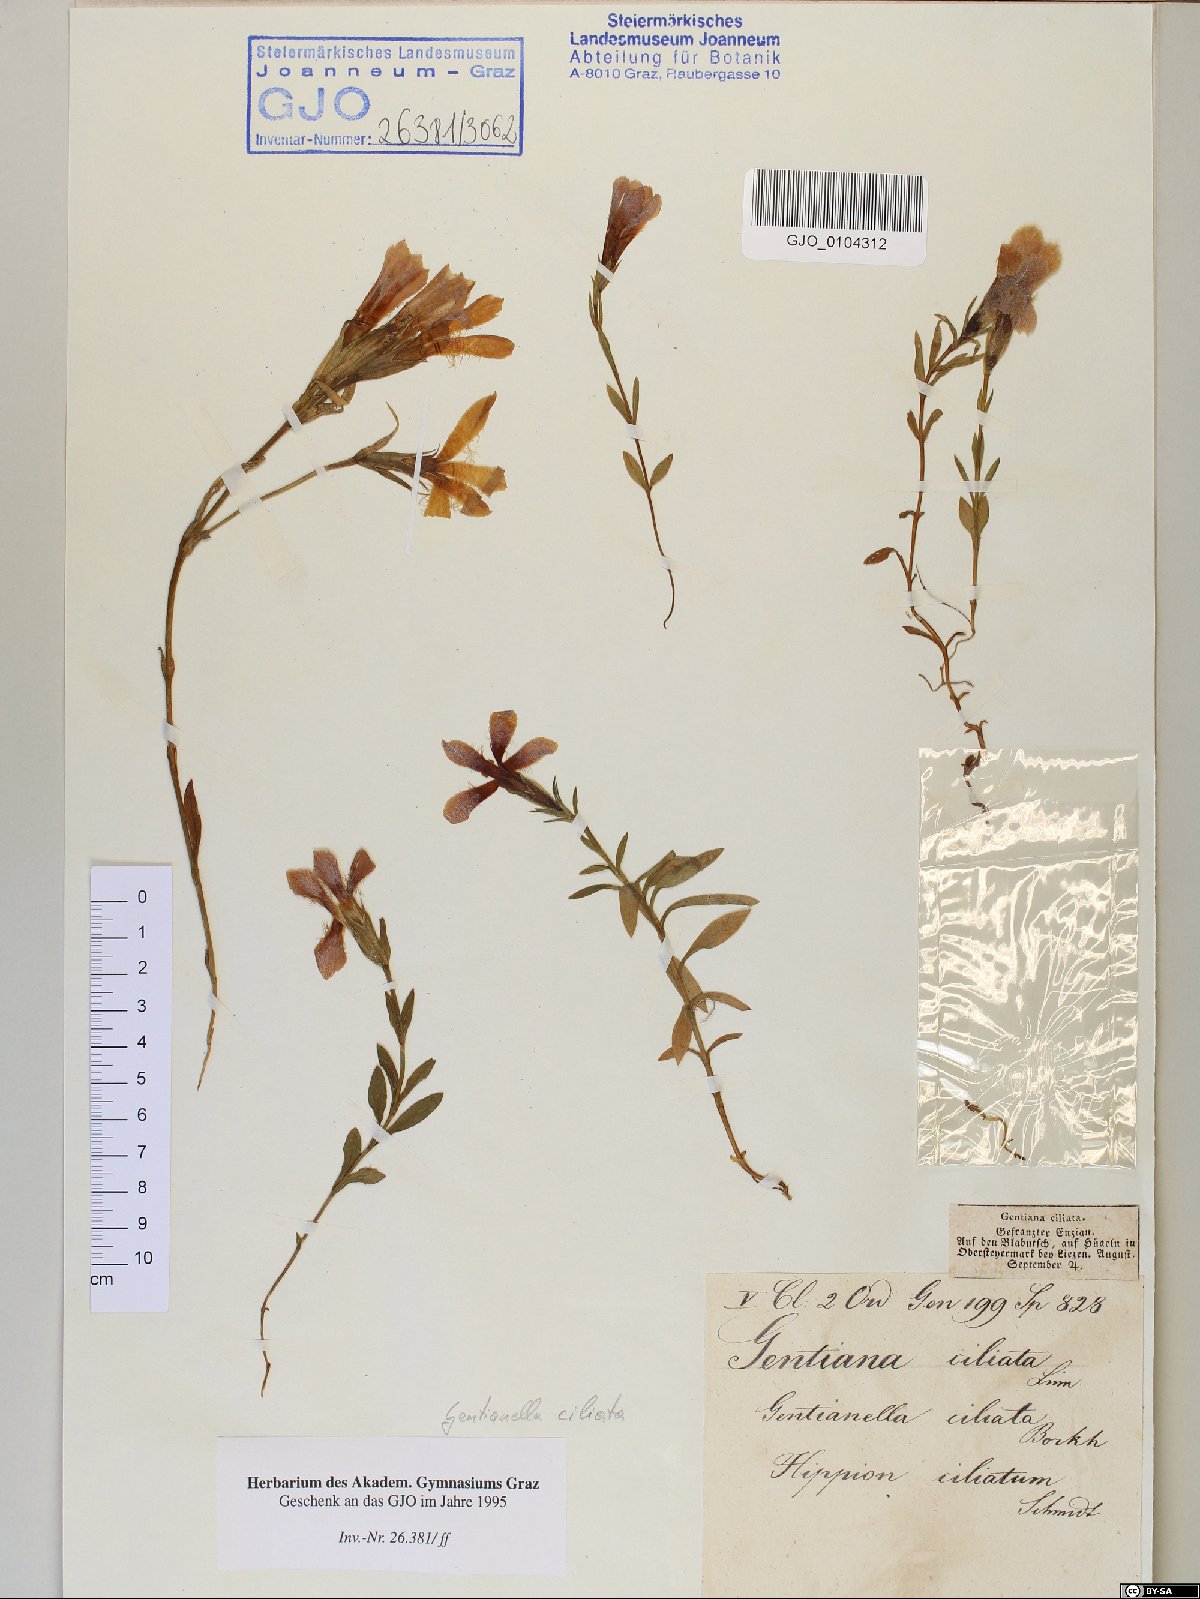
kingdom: Plantae
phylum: Tracheophyta
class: Magnoliopsida
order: Gentianales
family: Gentianaceae
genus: Gentianopsis
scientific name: Gentianopsis ciliata
